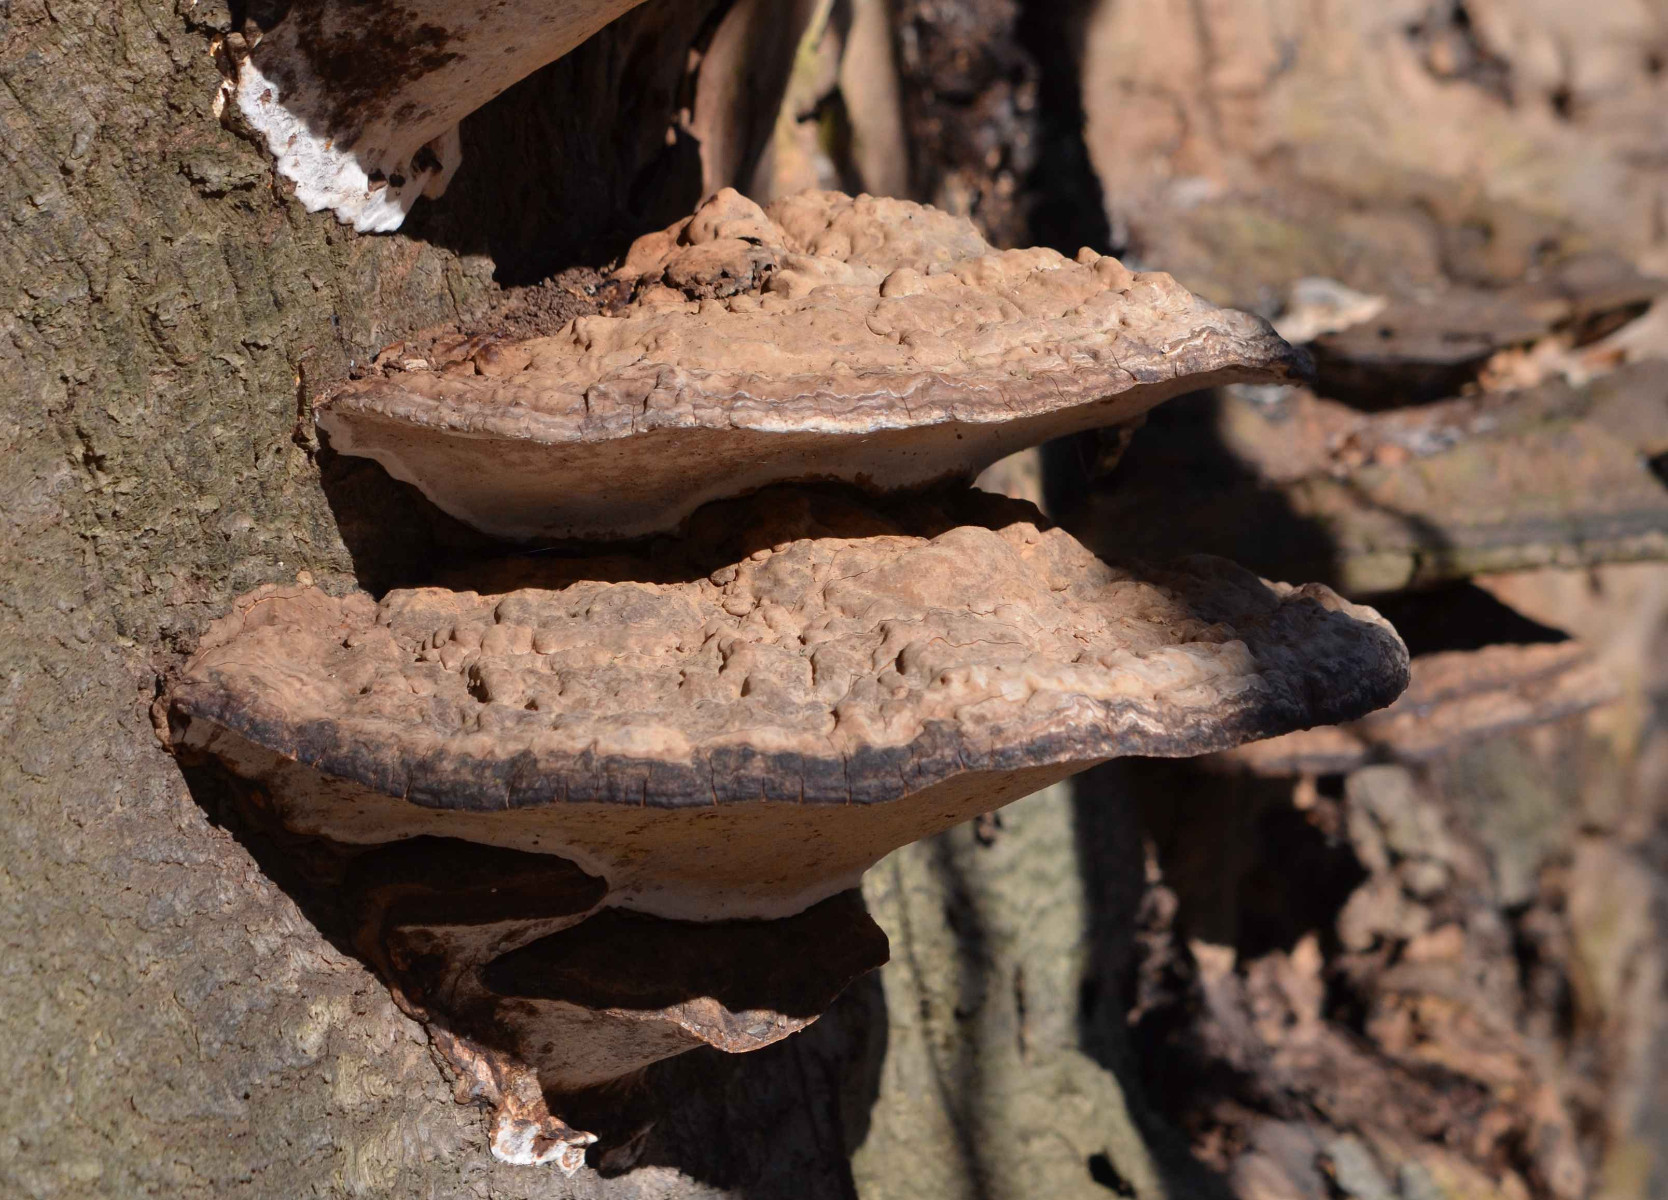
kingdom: Fungi
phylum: Basidiomycota
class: Agaricomycetes
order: Polyporales
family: Polyporaceae
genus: Ganoderma
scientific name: Ganoderma applanatum
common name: flad lakporesvamp
